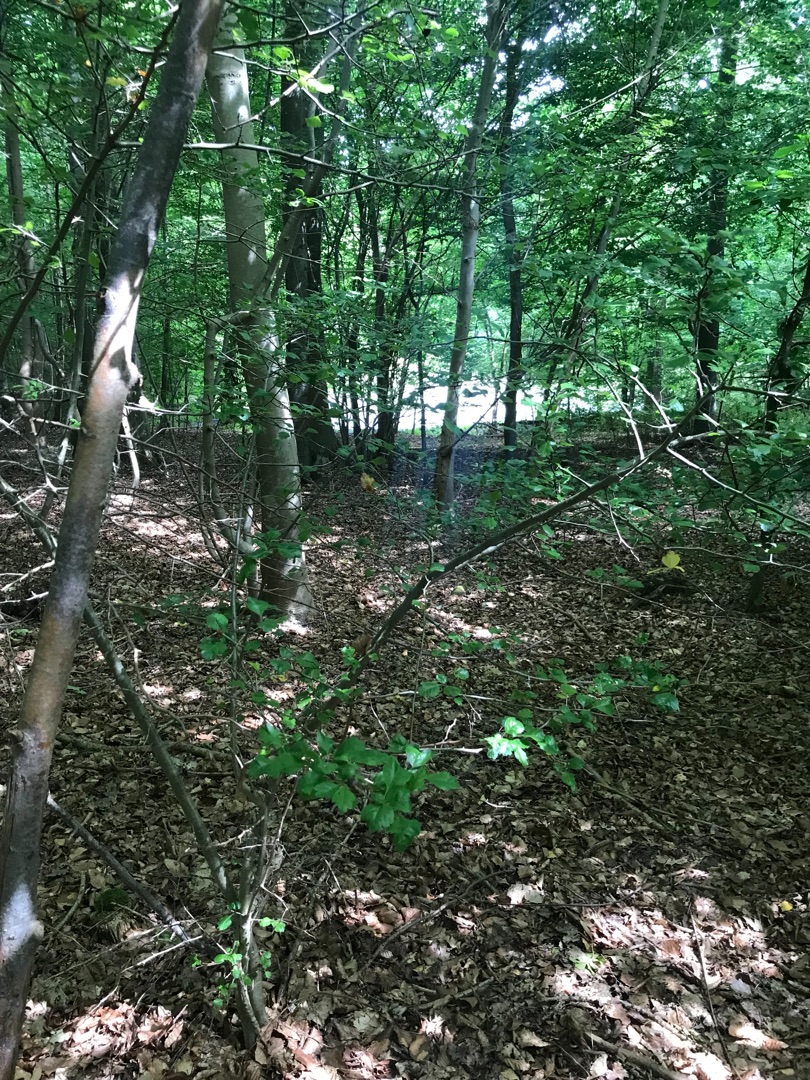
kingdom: Plantae
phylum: Tracheophyta
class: Magnoliopsida
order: Rosales
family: Rosaceae
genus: Crataegus
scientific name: Crataegus laevigata
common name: Almindelig hvidtjørn
